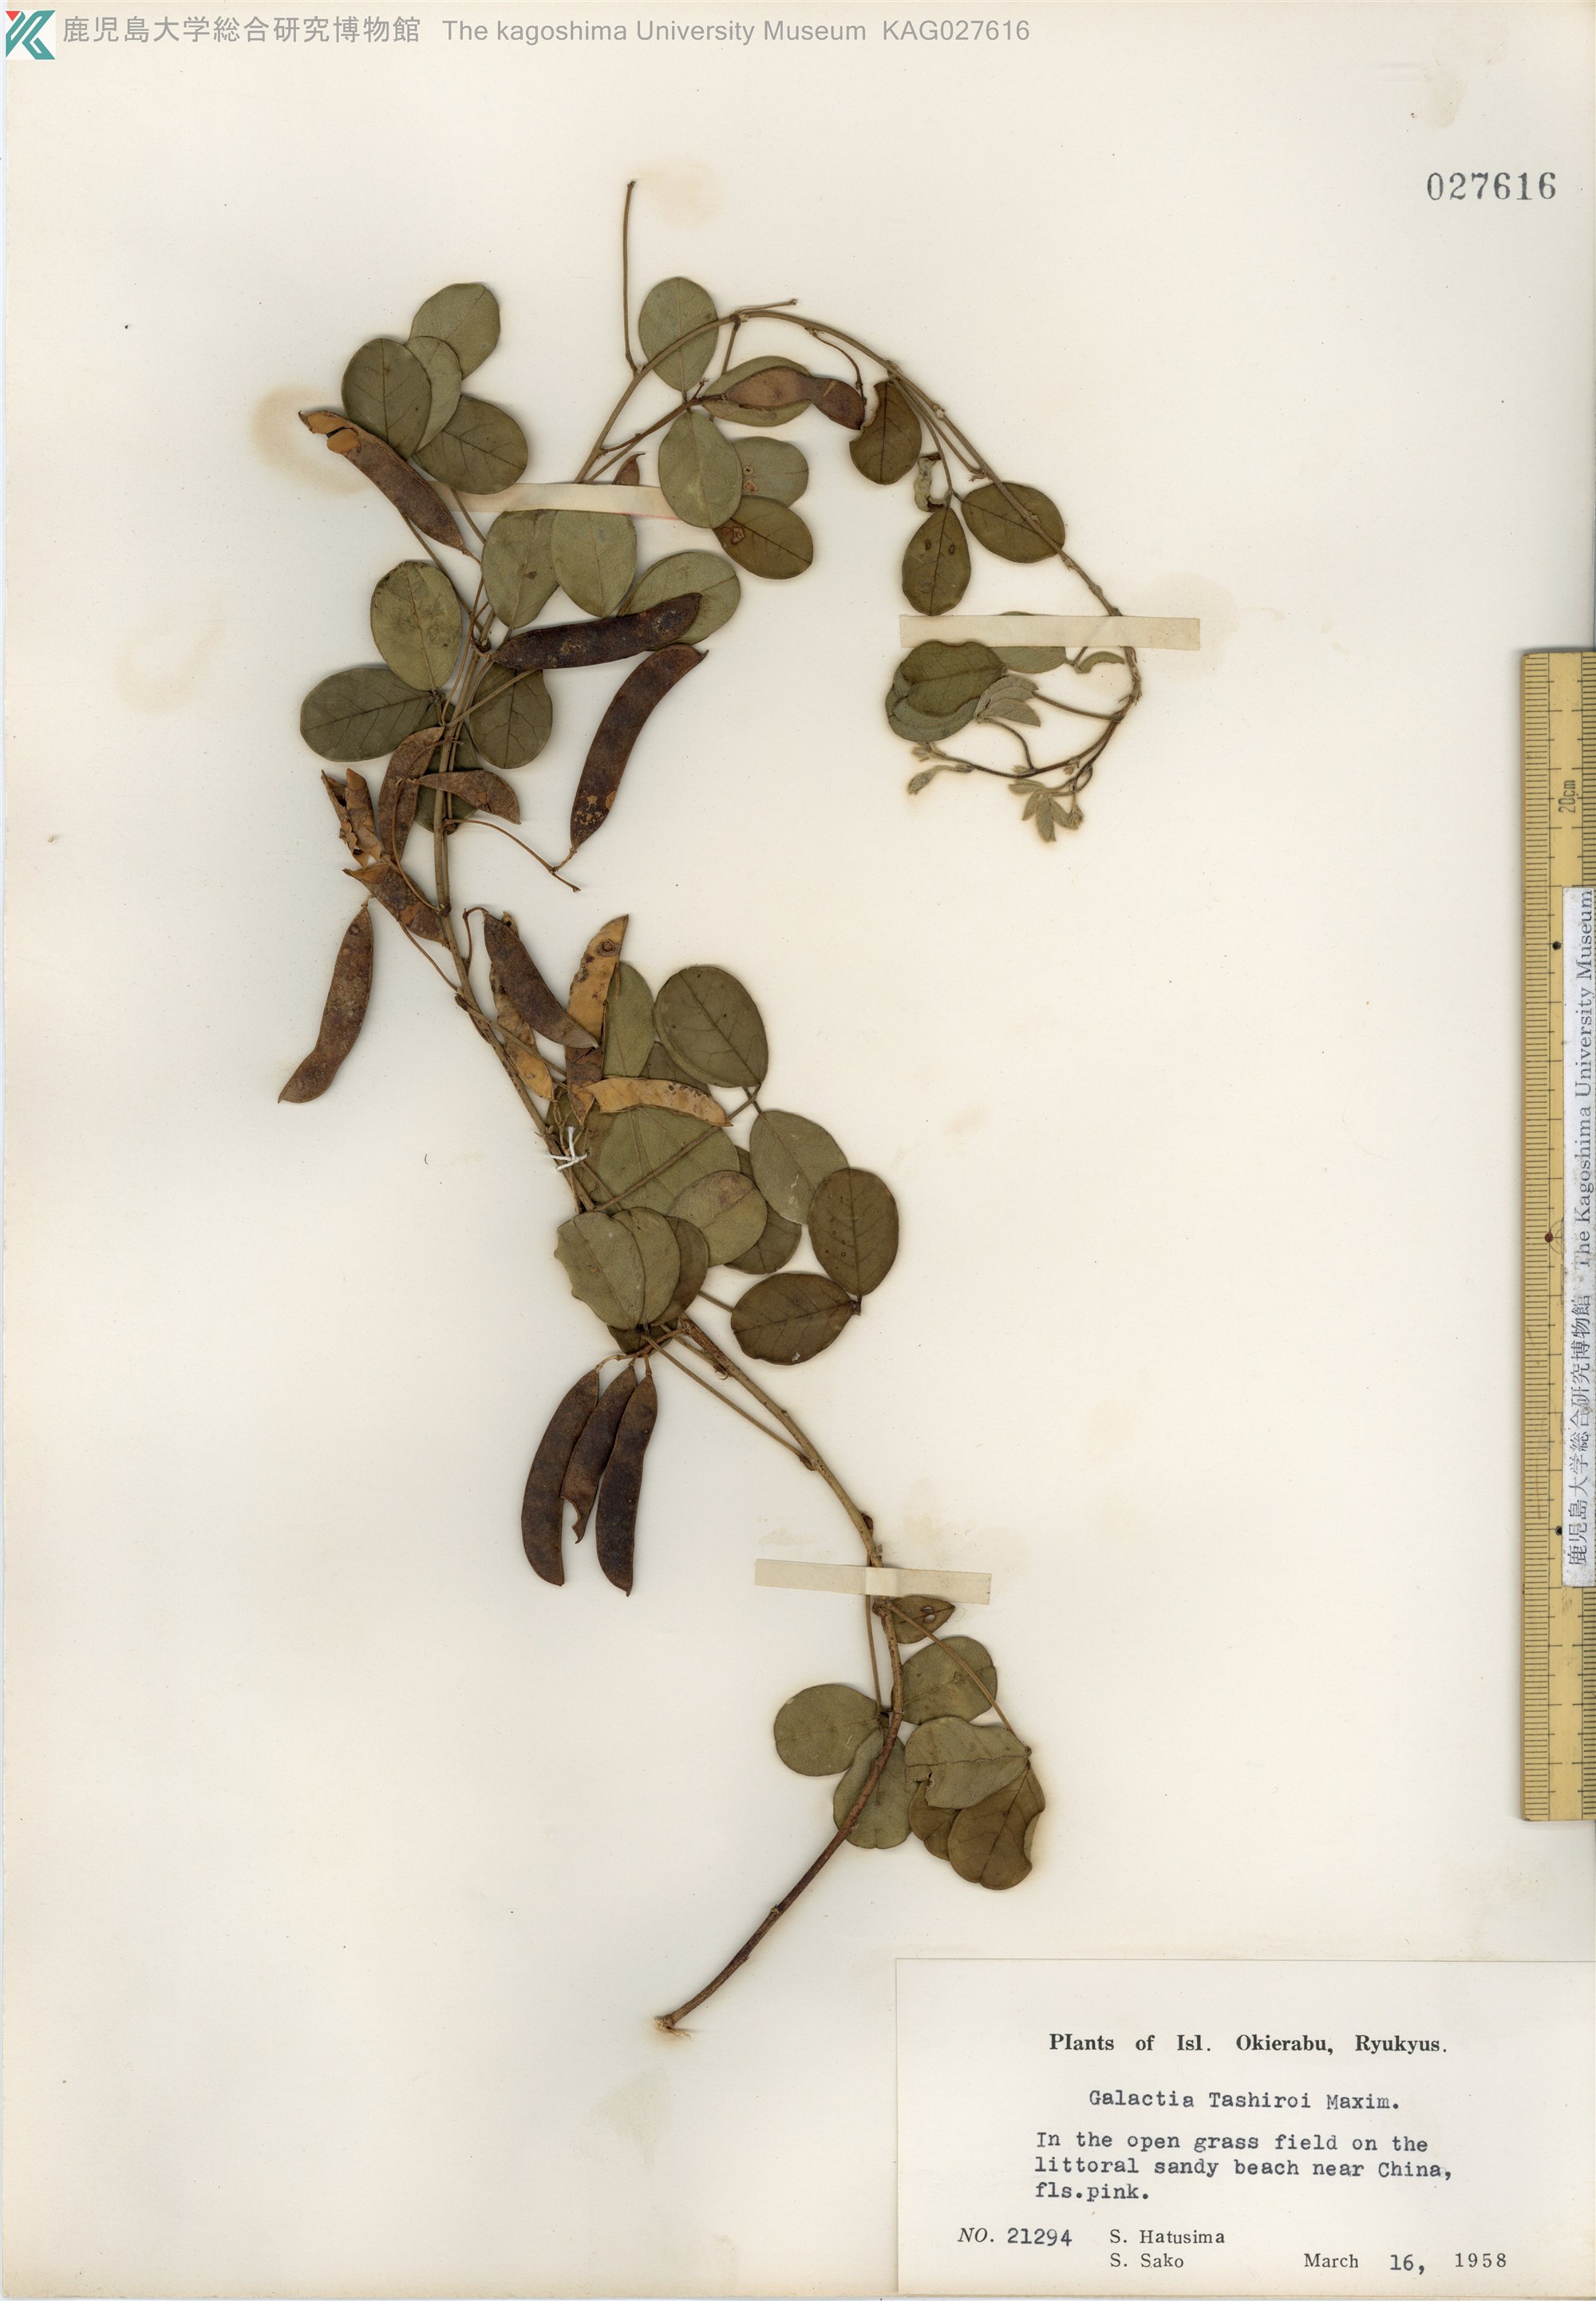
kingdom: Plantae
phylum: Tracheophyta
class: Magnoliopsida
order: Fabales
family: Fabaceae
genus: Galactia
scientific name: Galactia tashiroi
